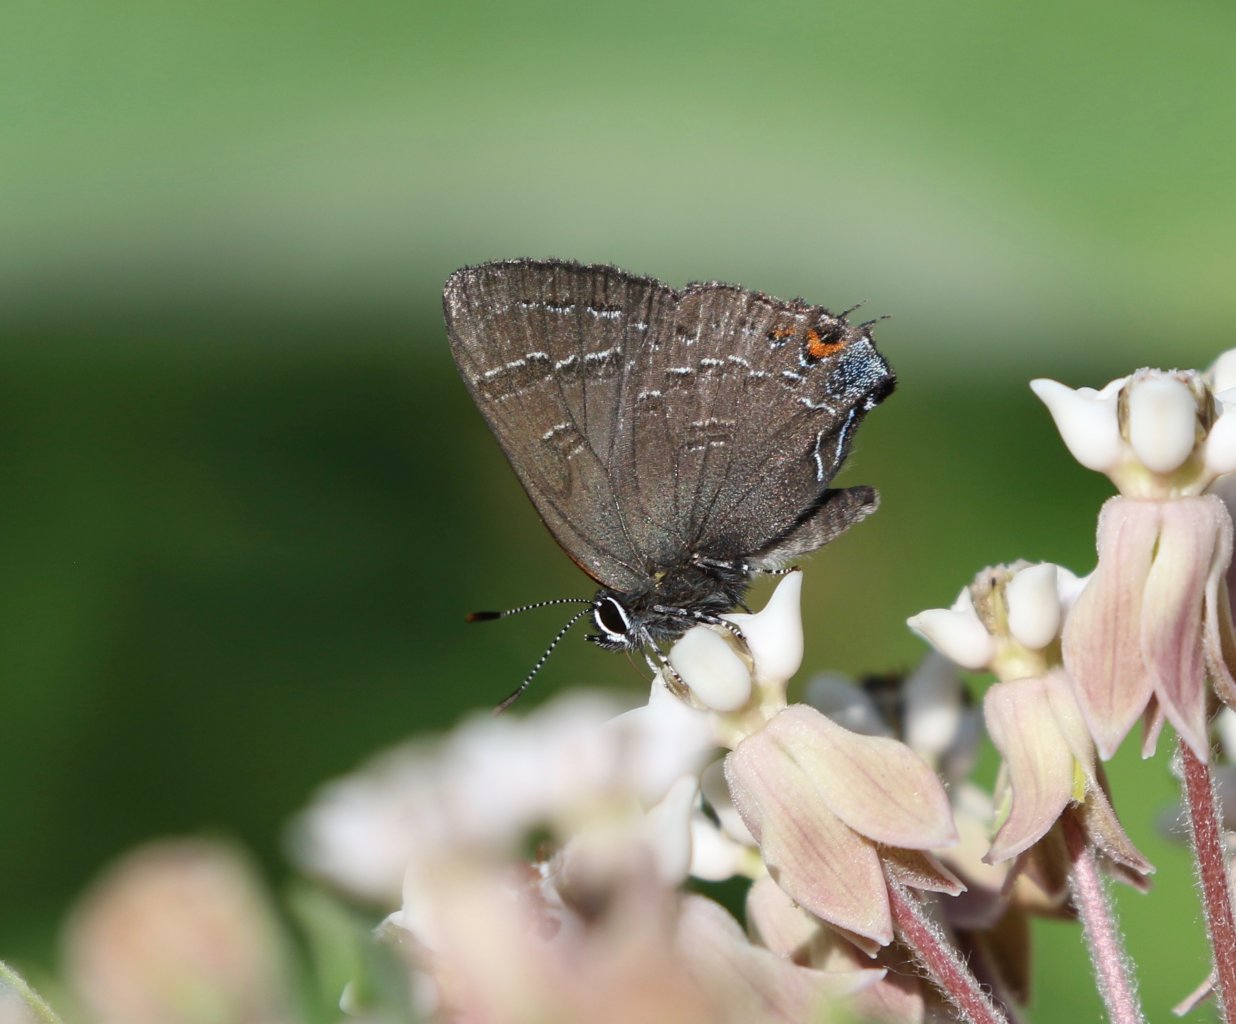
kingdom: Animalia
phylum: Arthropoda
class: Insecta
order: Lepidoptera
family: Lycaenidae
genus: Satyrium
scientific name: Satyrium calanus
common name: Banded Hairstreak
